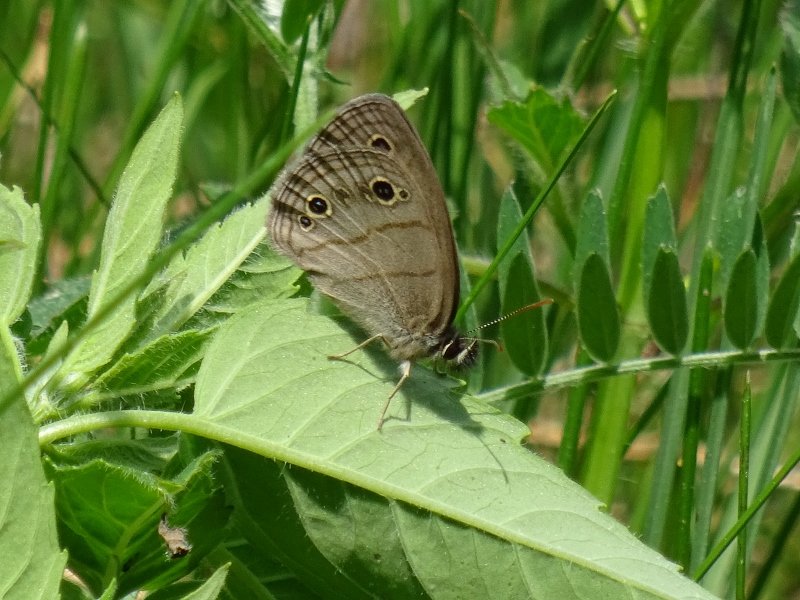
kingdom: Animalia
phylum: Arthropoda
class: Insecta
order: Lepidoptera
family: Nymphalidae
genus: Euptychia
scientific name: Euptychia cymela
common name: Little Wood Satyr
